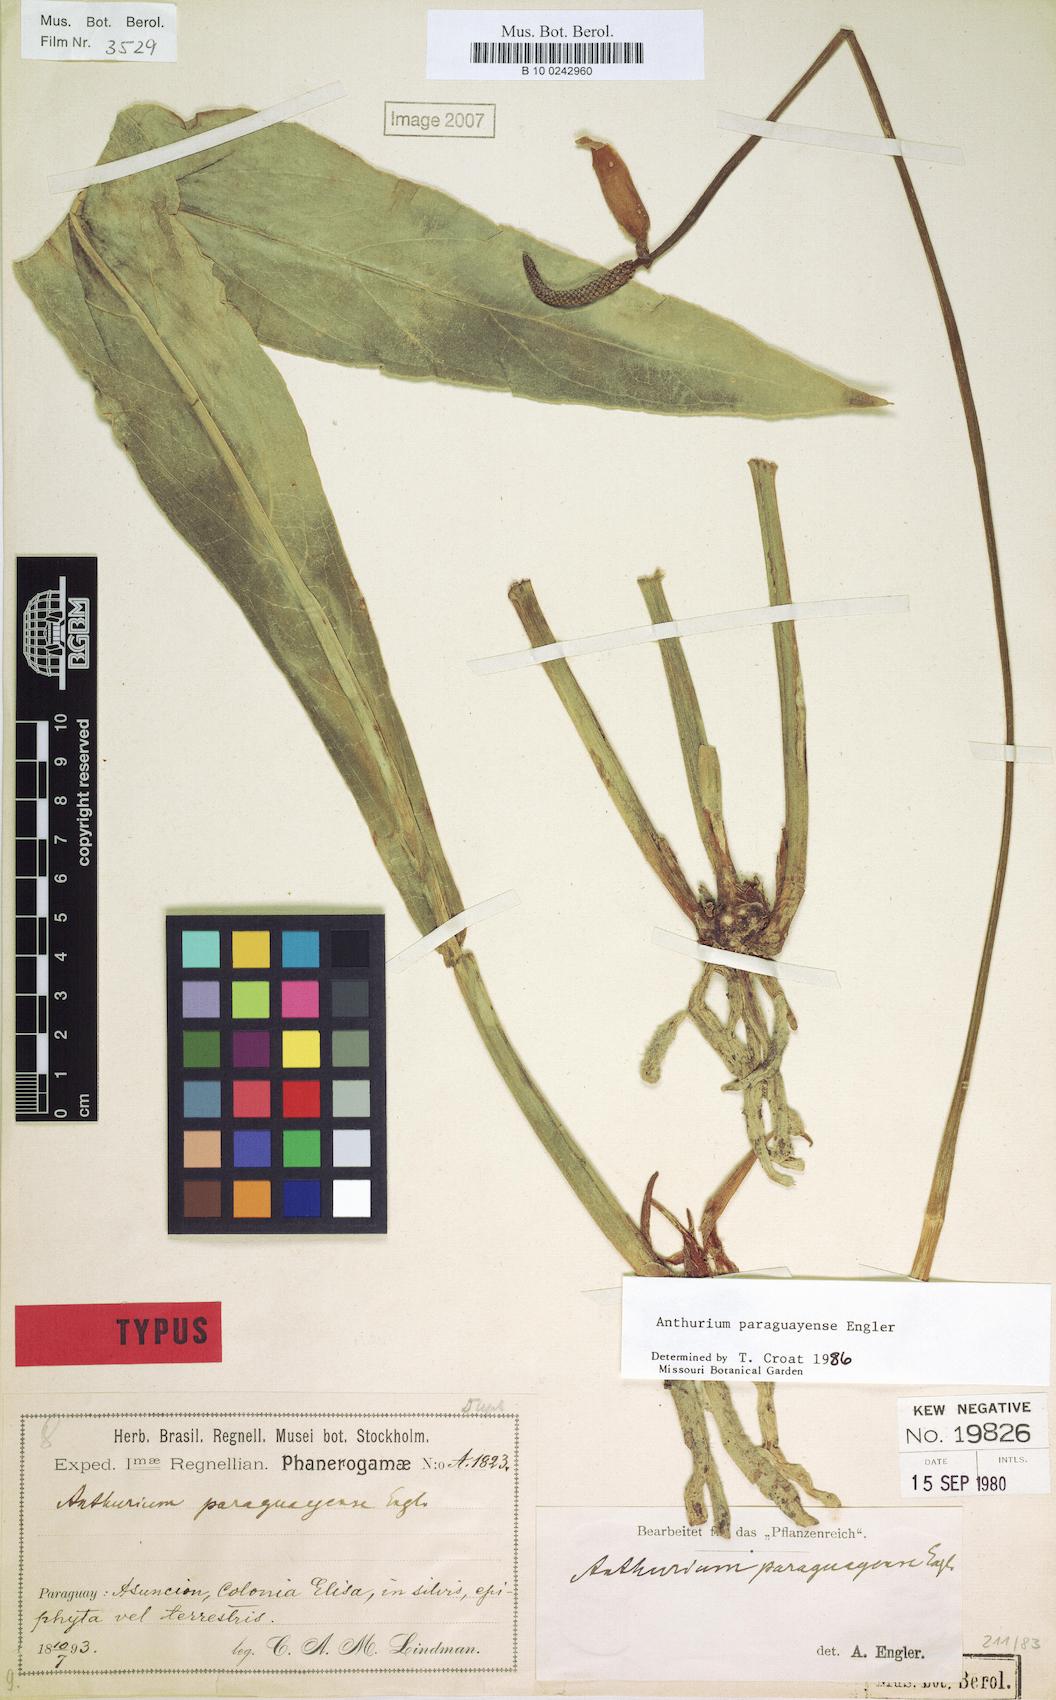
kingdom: Plantae
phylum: Tracheophyta
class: Liliopsida
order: Alismatales
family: Araceae
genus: Anthurium
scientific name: Anthurium paraguayense
